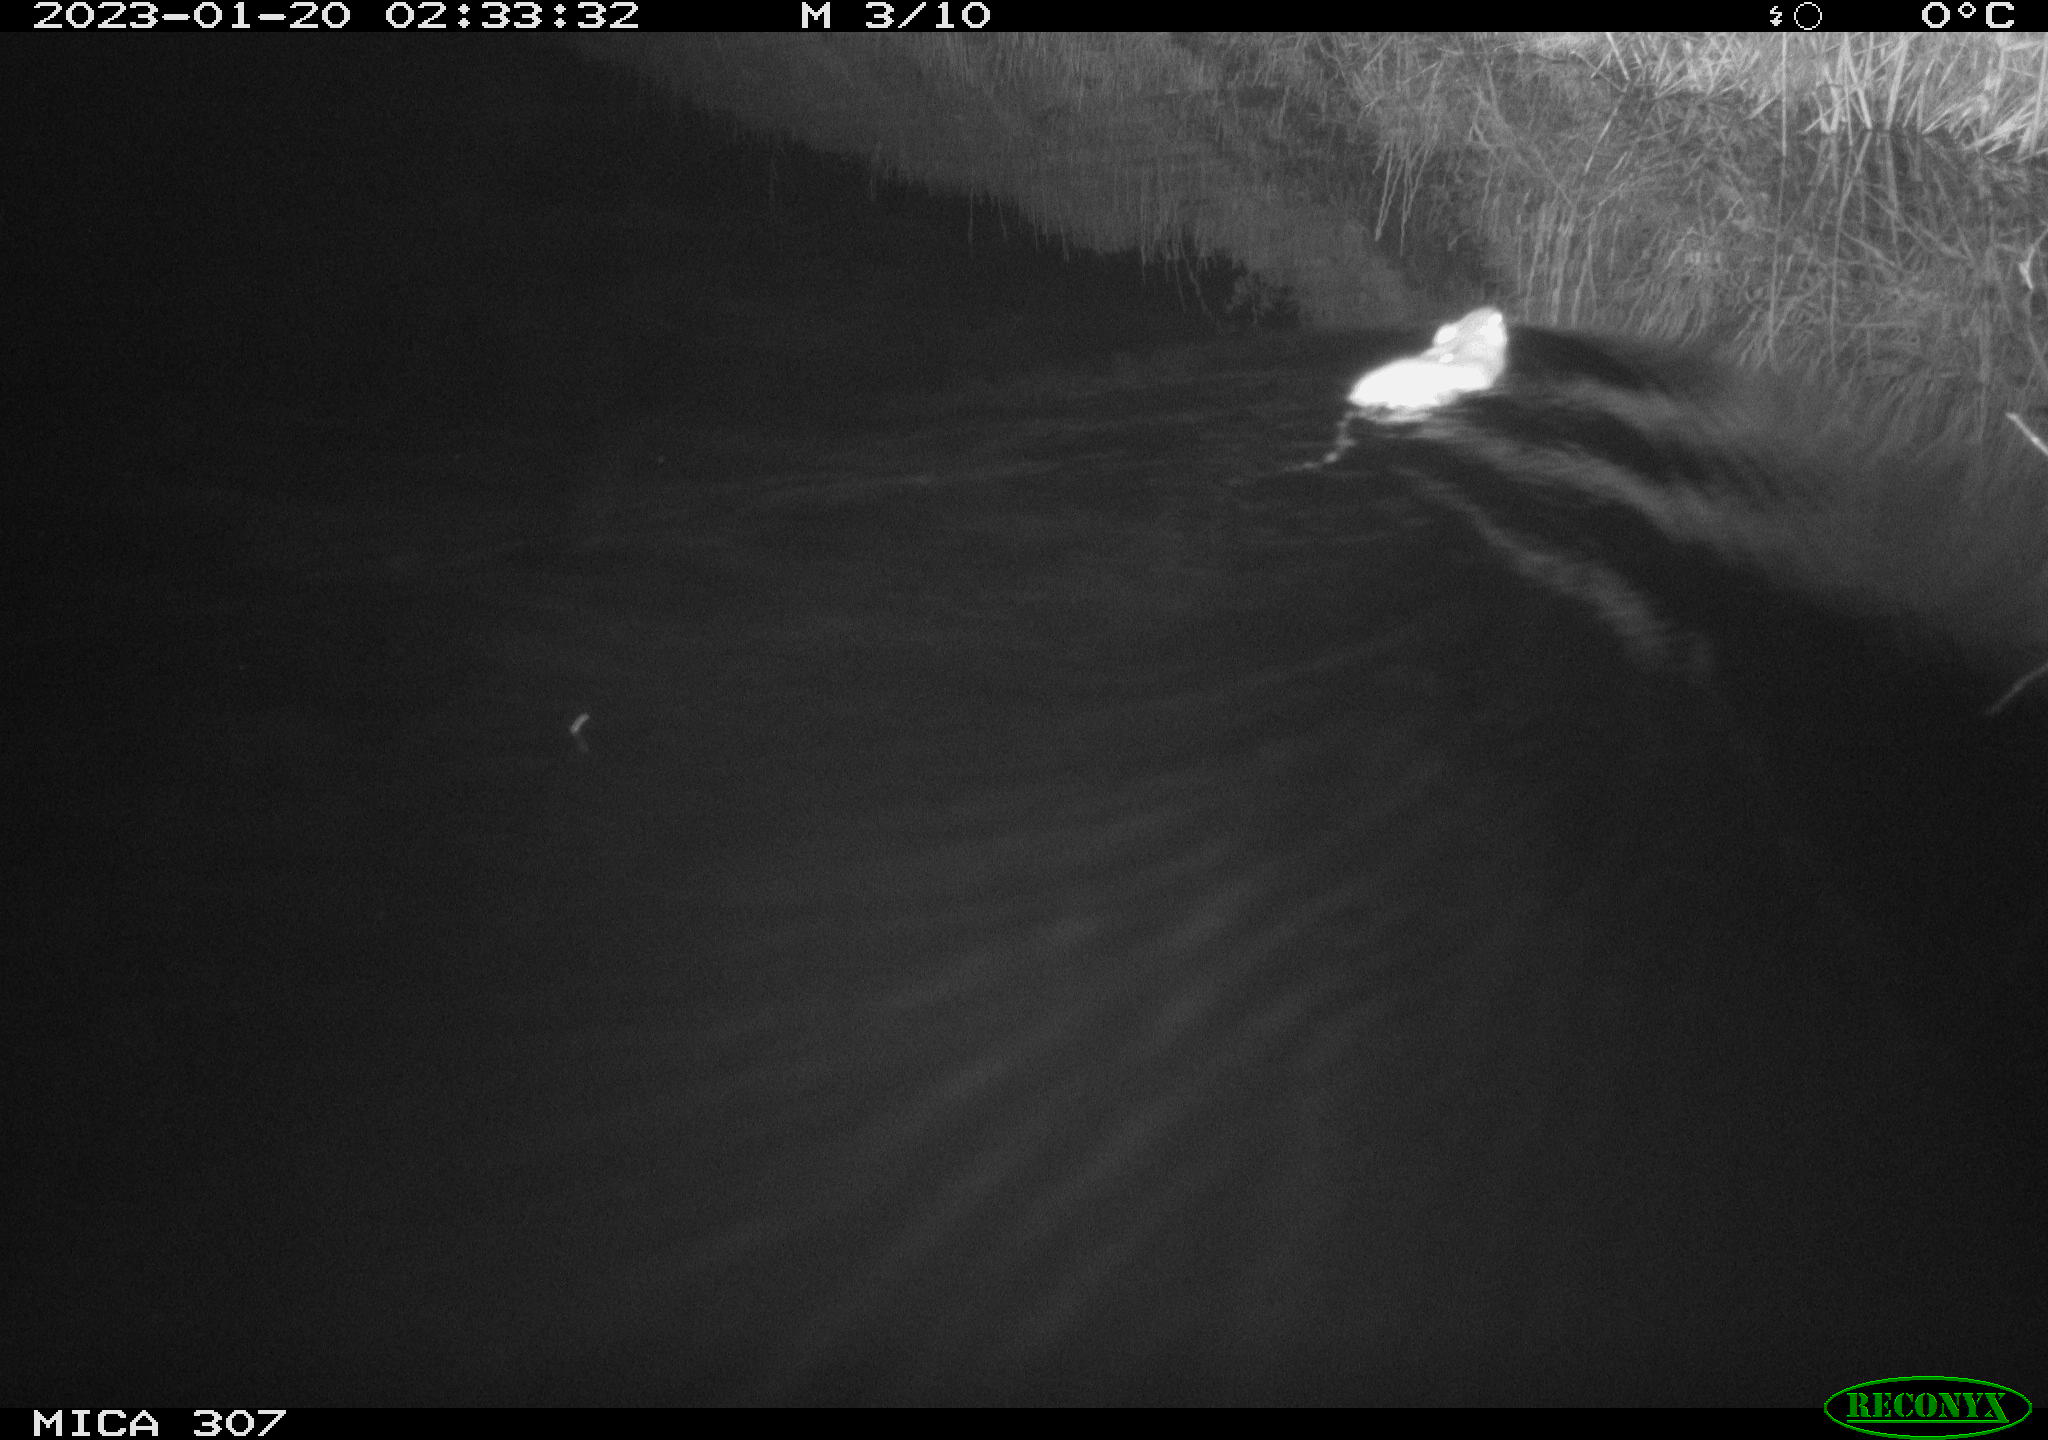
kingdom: Animalia
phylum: Chordata
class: Mammalia
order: Rodentia
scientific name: Rodentia
